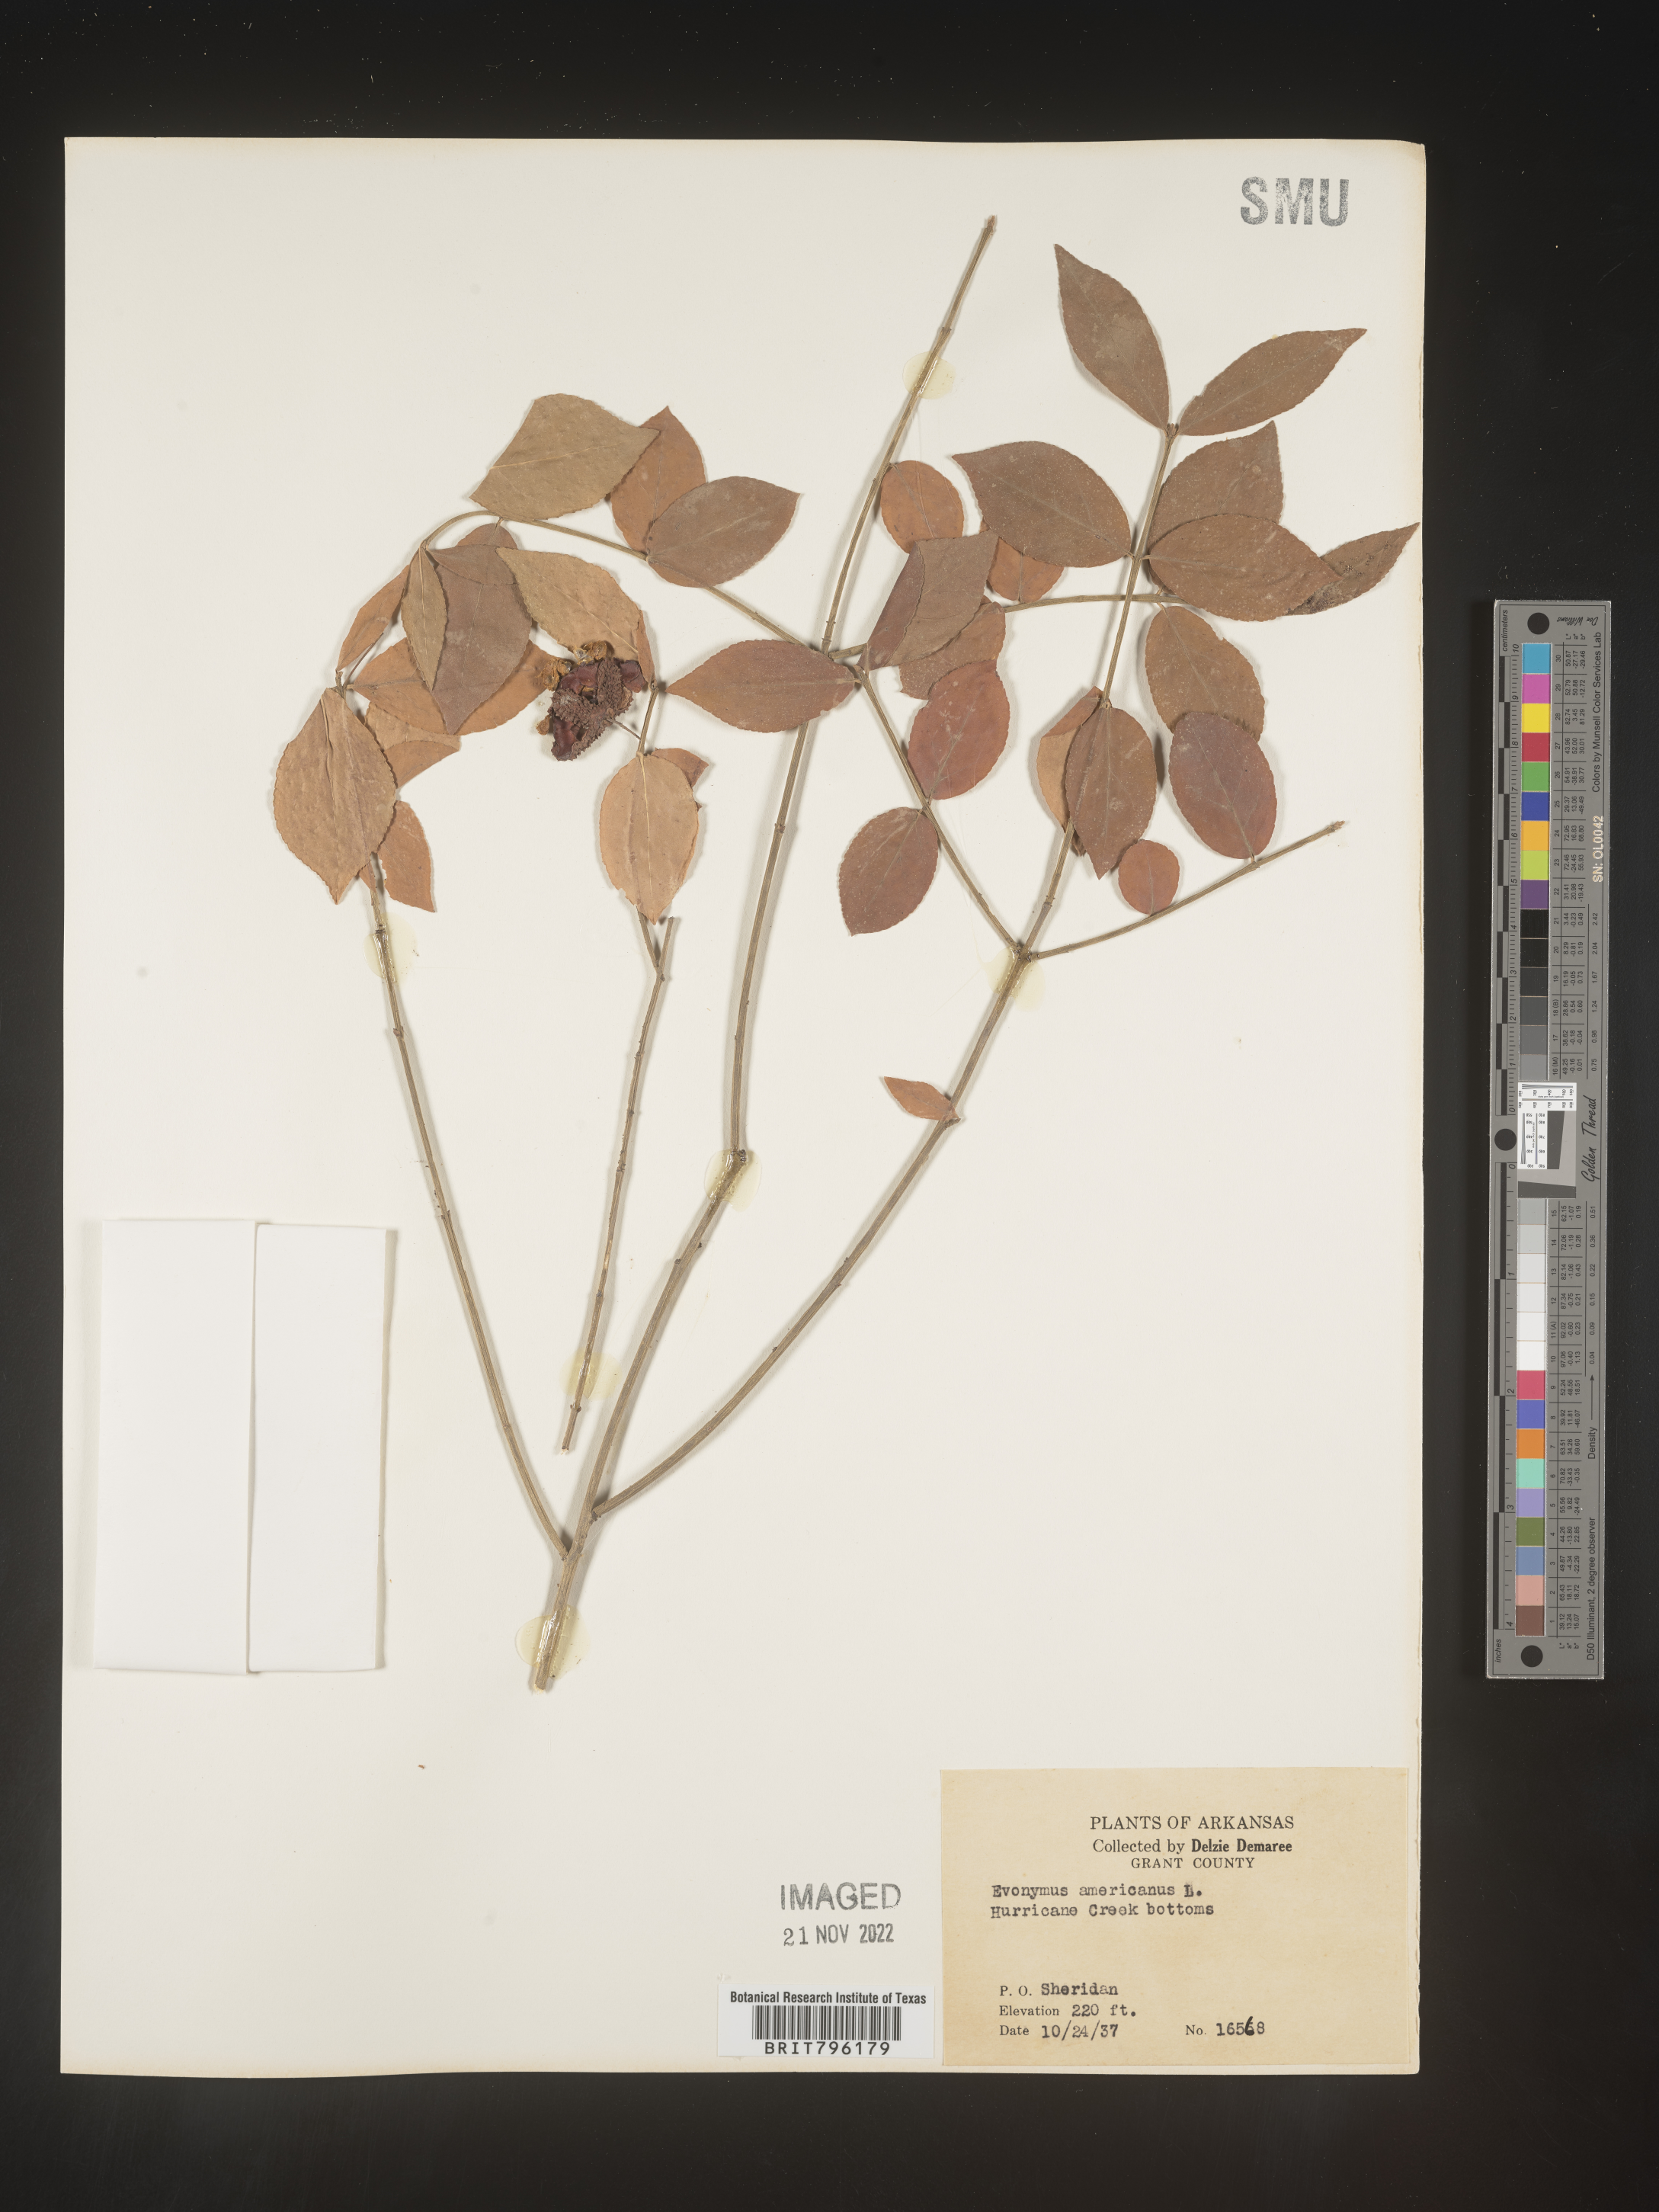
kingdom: Plantae
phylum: Tracheophyta
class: Magnoliopsida
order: Celastrales
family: Celastraceae
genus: Euonymus
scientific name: Euonymus americanus
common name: Bursting-heart
